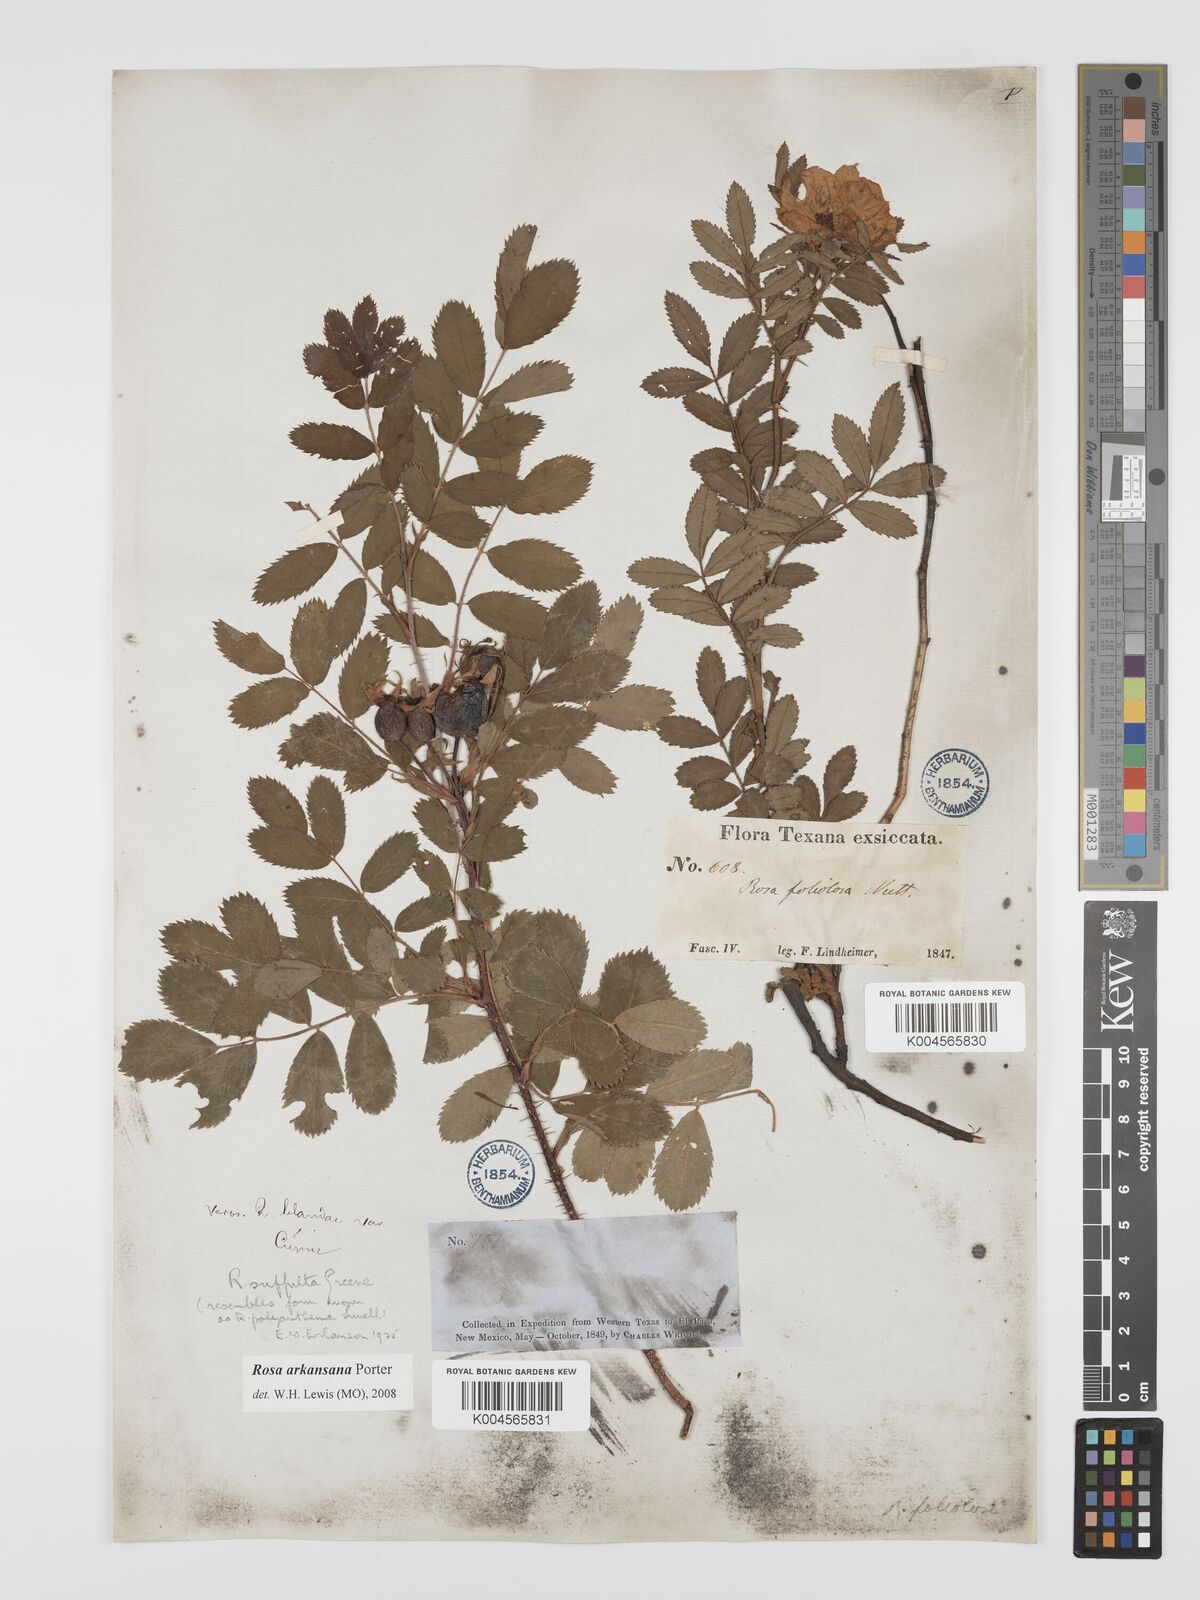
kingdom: Plantae
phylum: Tracheophyta
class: Magnoliopsida
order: Rosales
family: Rosaceae
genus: Rosa
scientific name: Rosa foliolosa
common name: White prairie rose
